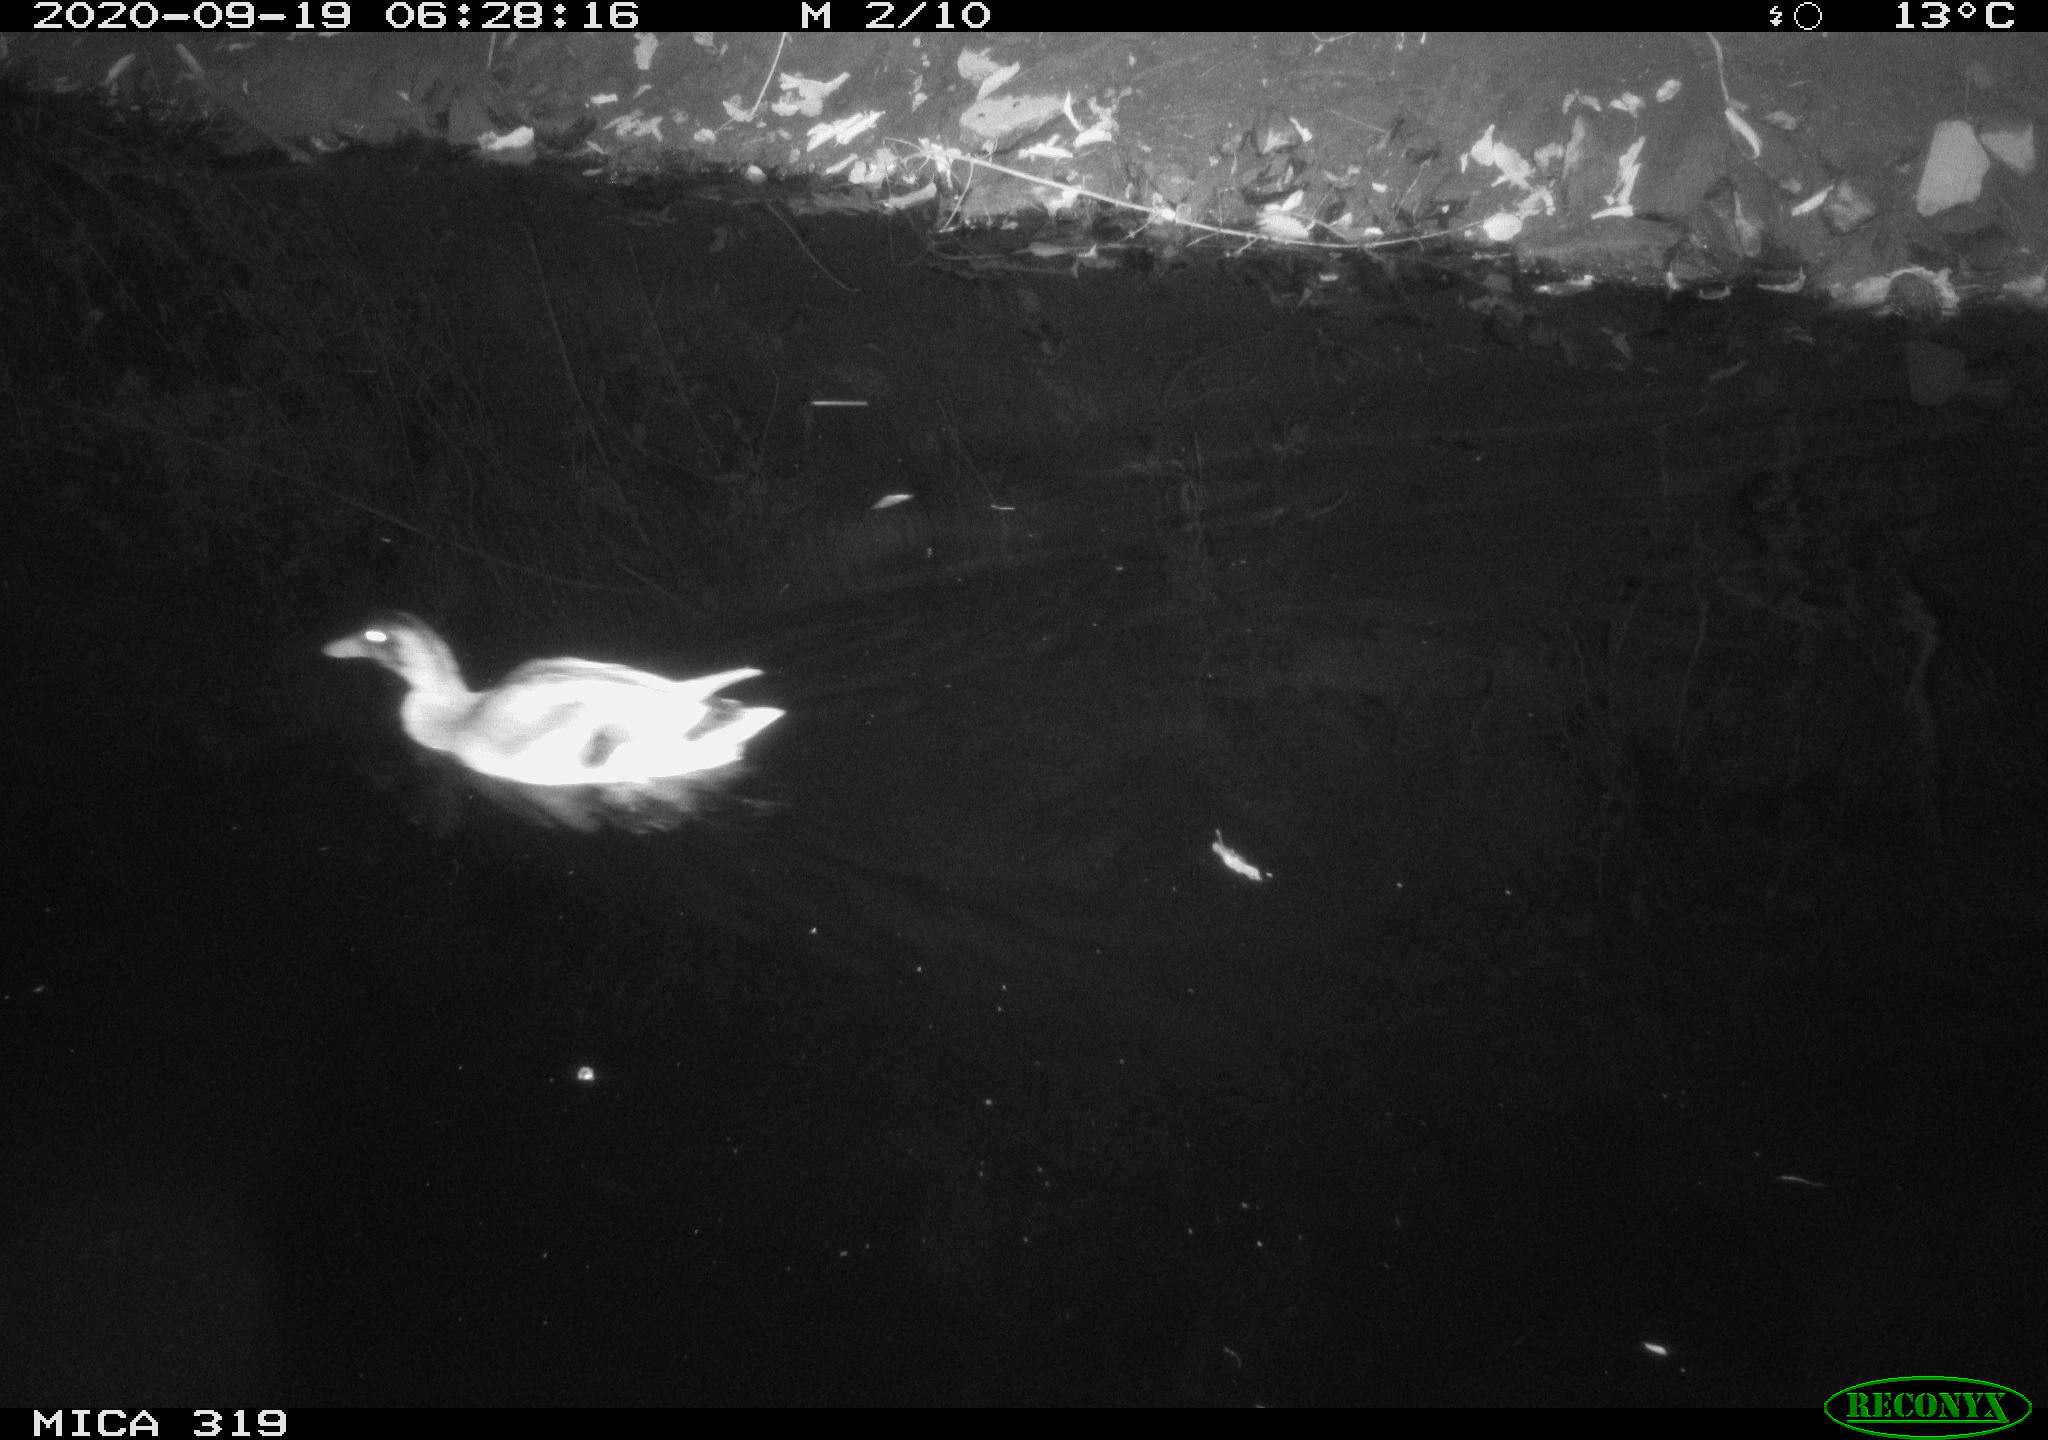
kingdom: Animalia
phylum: Chordata
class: Aves
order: Anseriformes
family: Anatidae
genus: Anas
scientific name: Anas platyrhynchos
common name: Mallard
